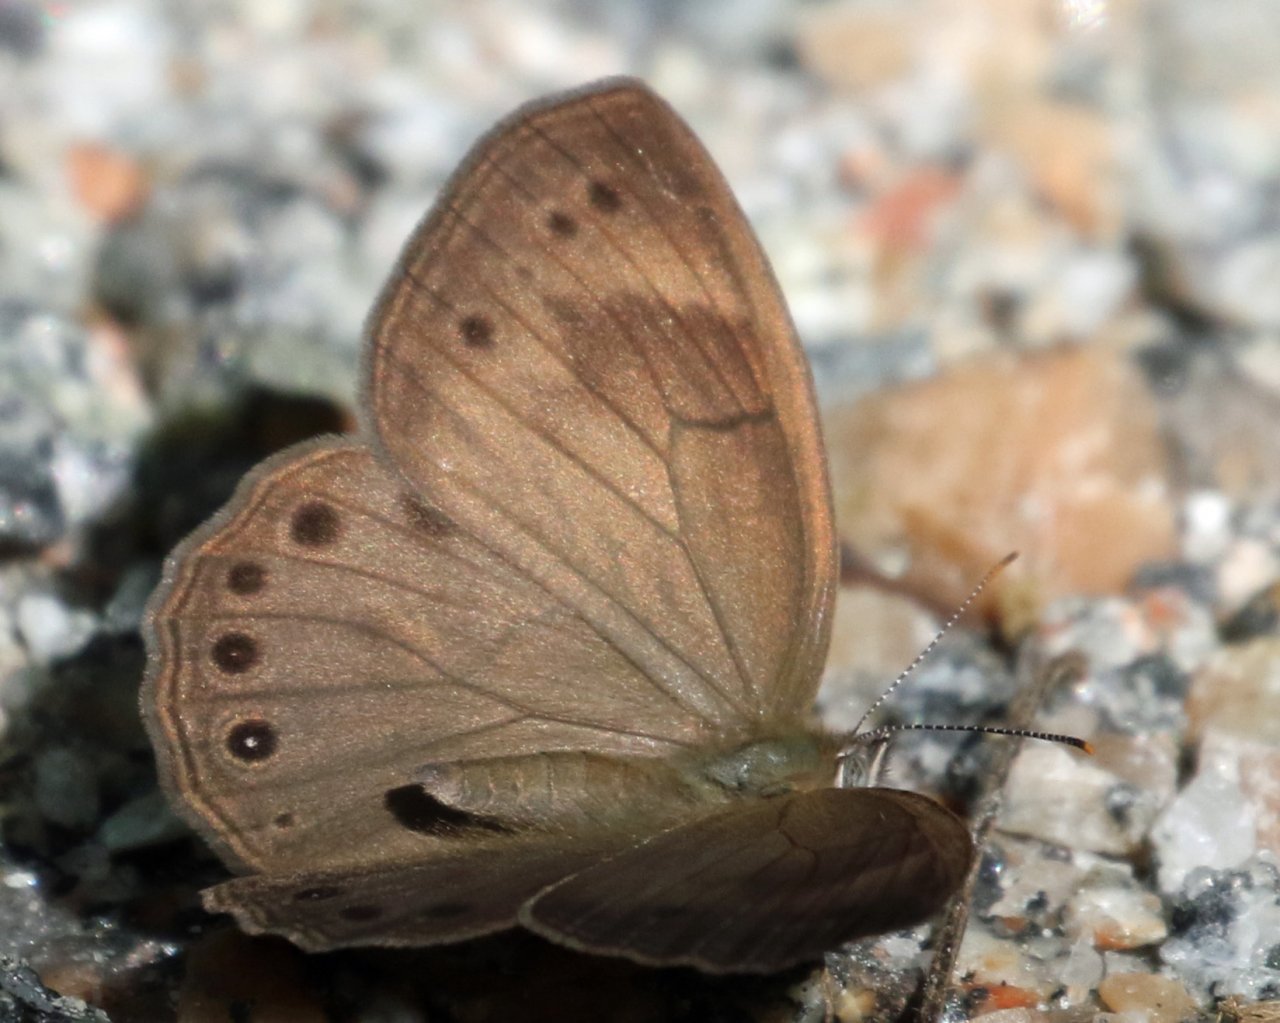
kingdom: Animalia
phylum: Arthropoda
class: Insecta
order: Lepidoptera
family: Nymphalidae
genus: Lethe
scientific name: Lethe eurydice
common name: Appalachian Eyed Brown
